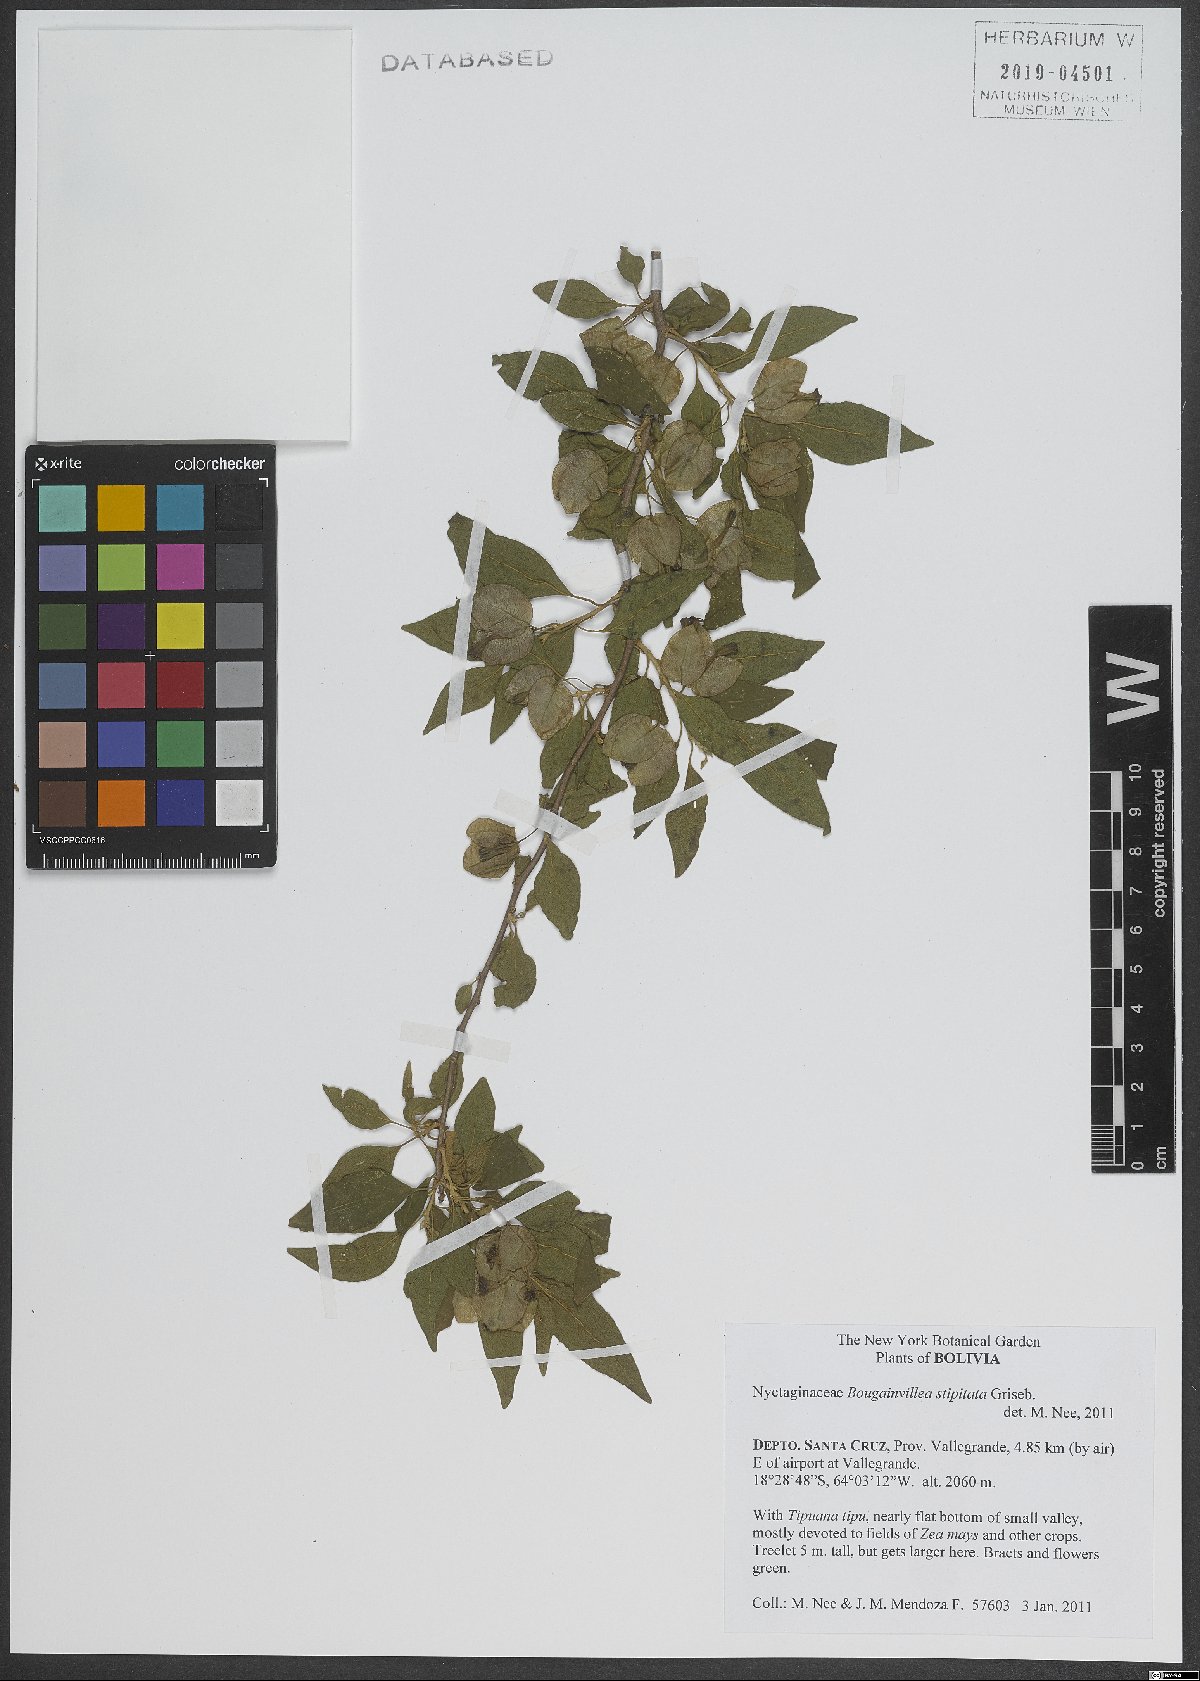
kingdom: Plantae
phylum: Tracheophyta
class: Magnoliopsida
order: Caryophyllales
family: Nyctaginaceae
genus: Bougainvillea
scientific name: Bougainvillea stipitata
